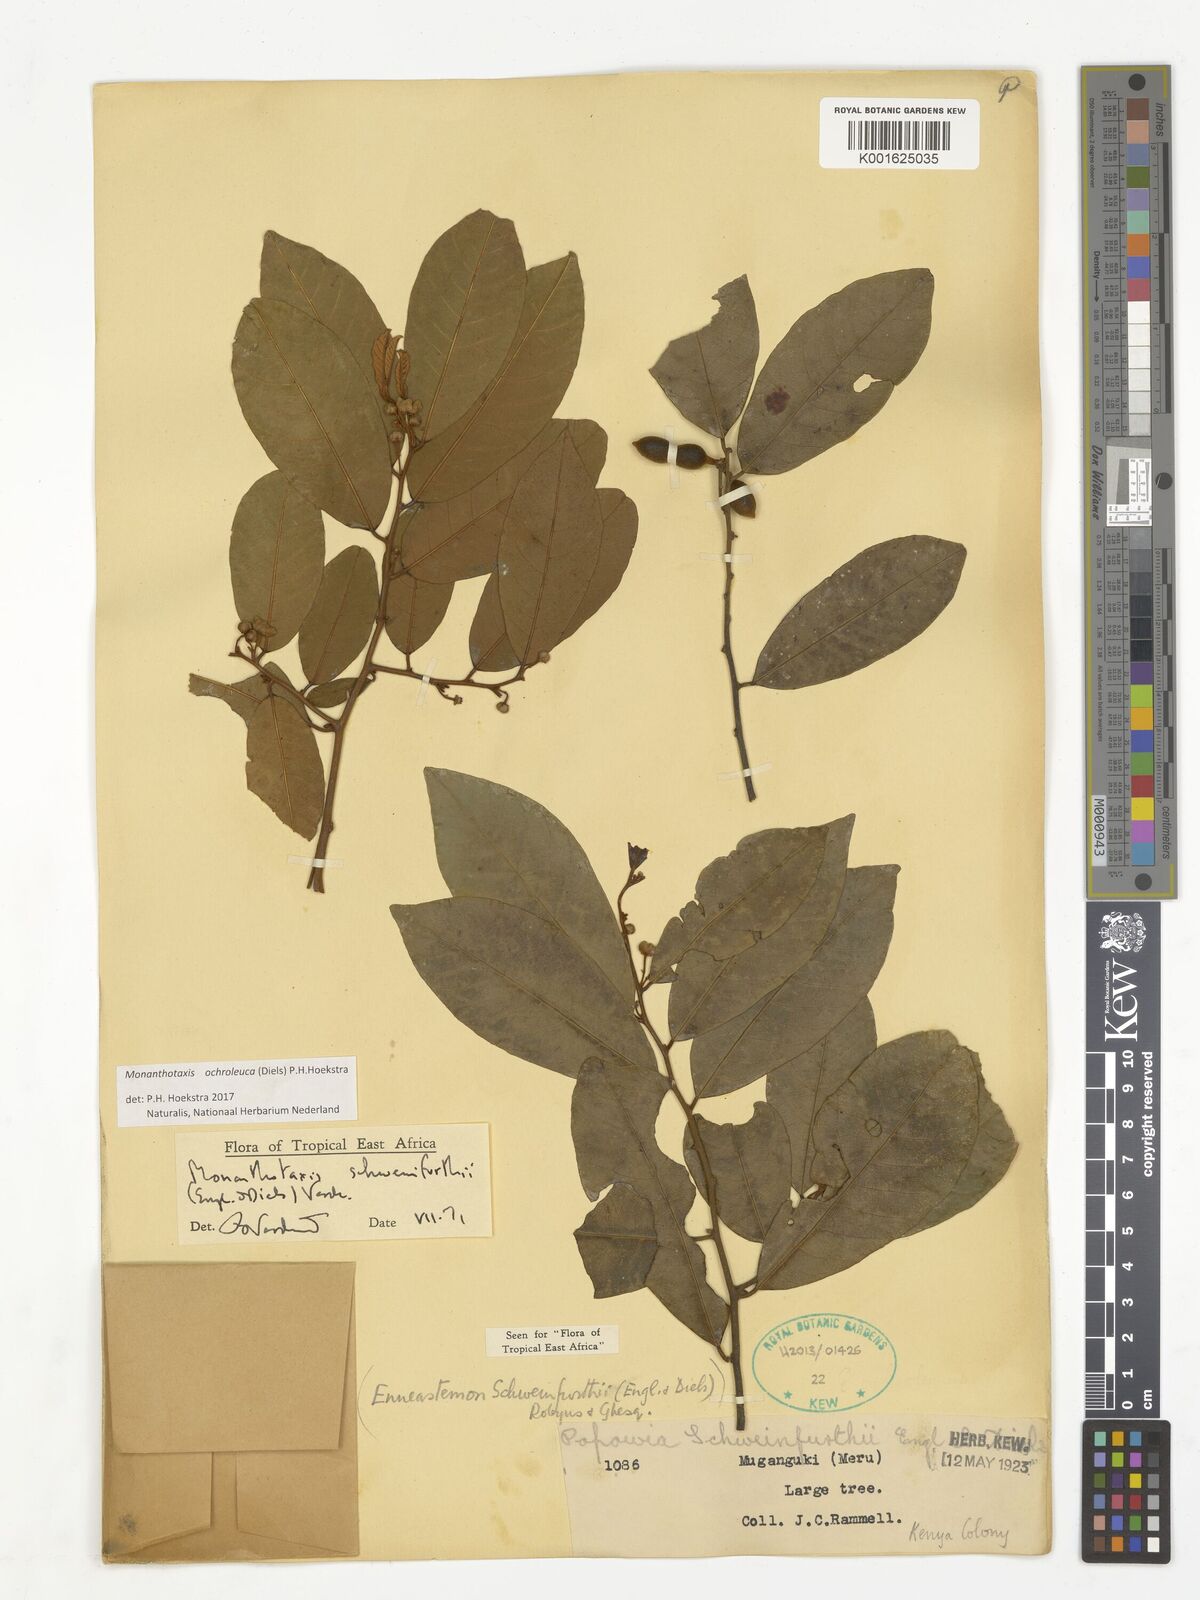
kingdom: Plantae
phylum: Tracheophyta
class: Magnoliopsida
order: Magnoliales
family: Annonaceae
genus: Monanthotaxis
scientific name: Monanthotaxis
